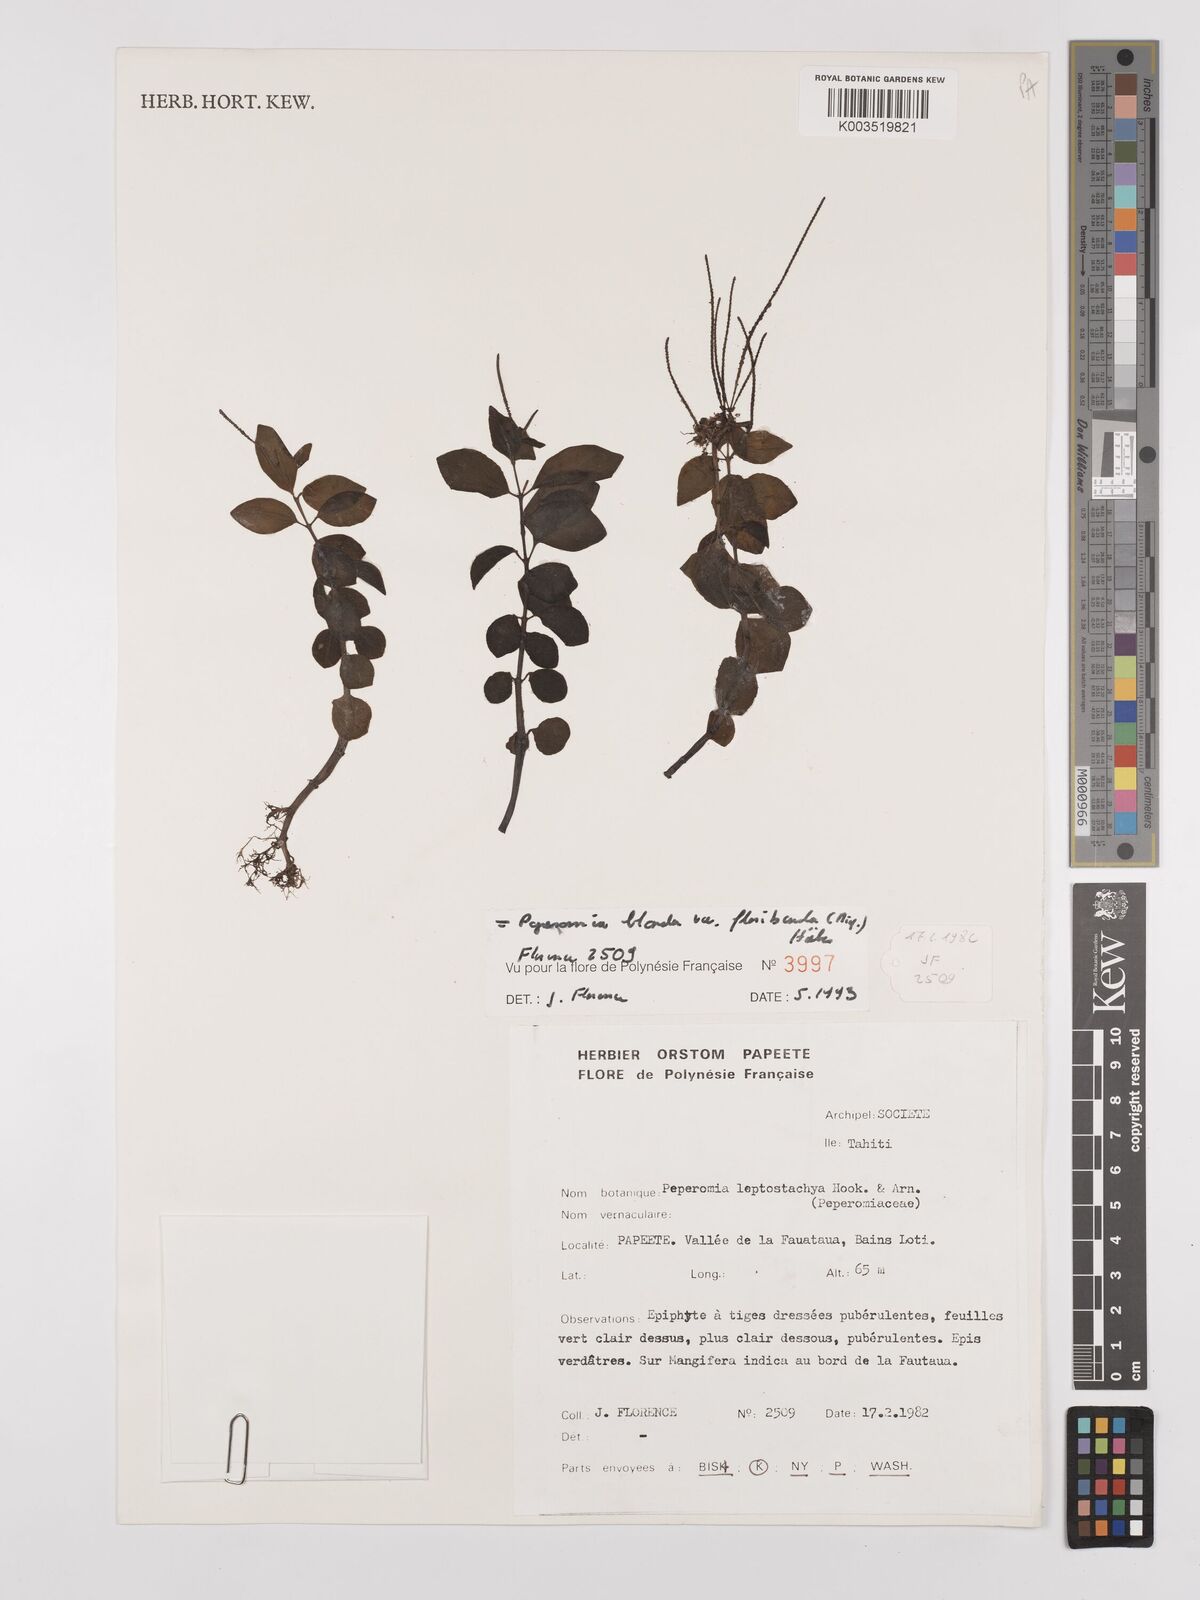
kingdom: Plantae
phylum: Tracheophyta
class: Magnoliopsida
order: Piperales
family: Piperaceae
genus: Peperomia
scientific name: Peperomia leptostachya
